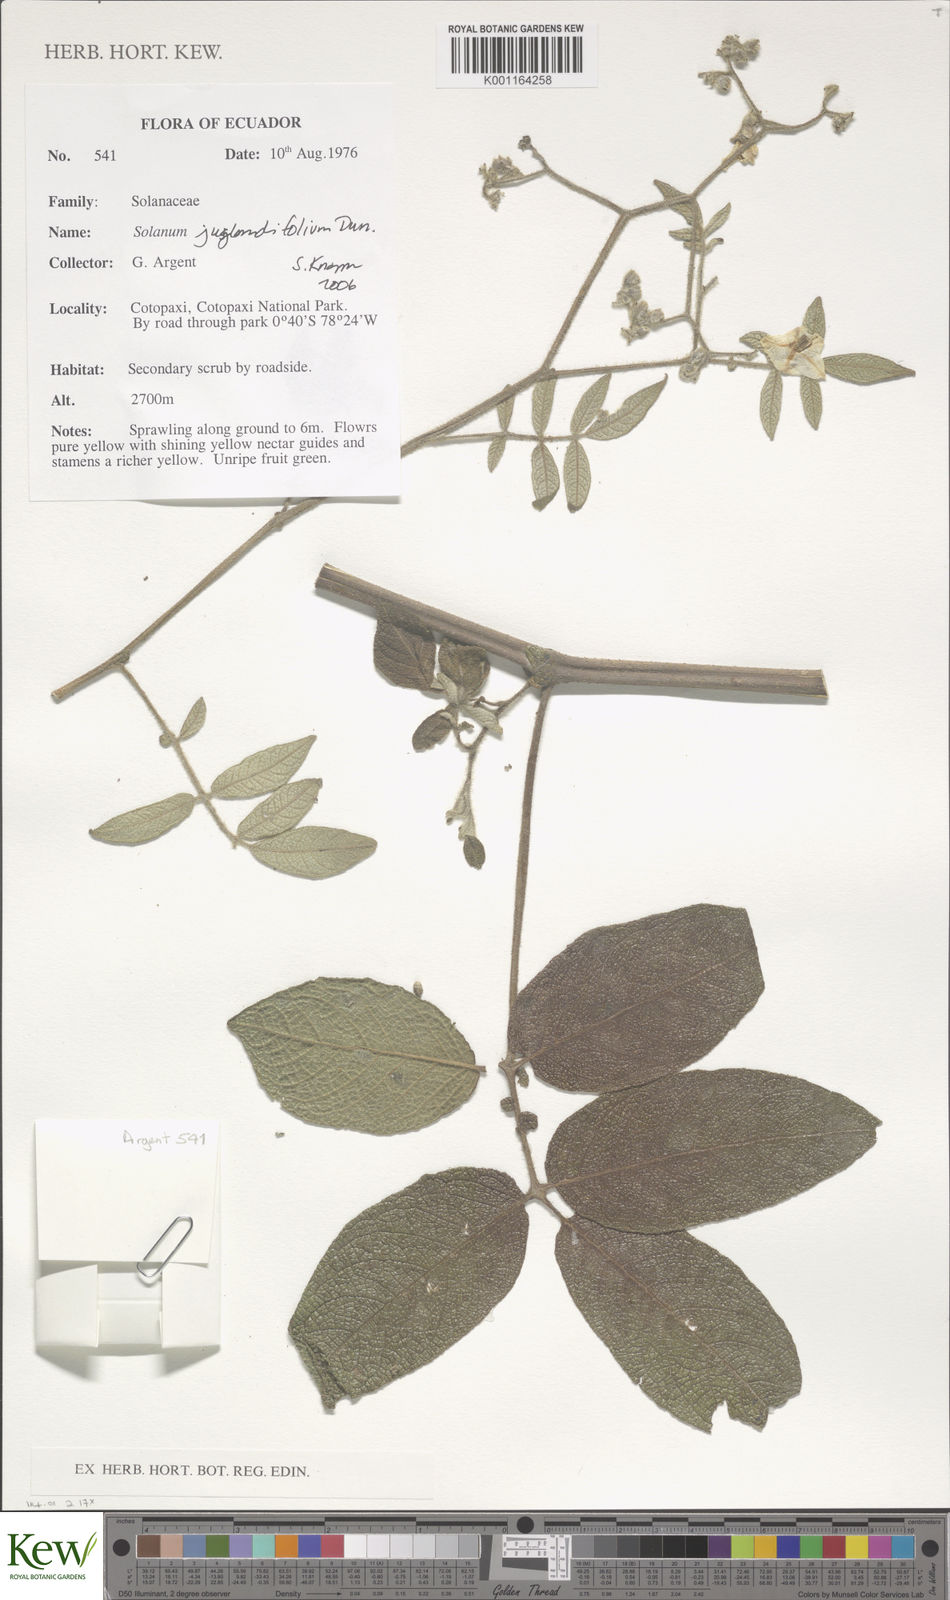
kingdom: Plantae
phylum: Tracheophyta
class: Magnoliopsida
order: Solanales
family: Solanaceae
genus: Solanum
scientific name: Solanum juglandifolium
